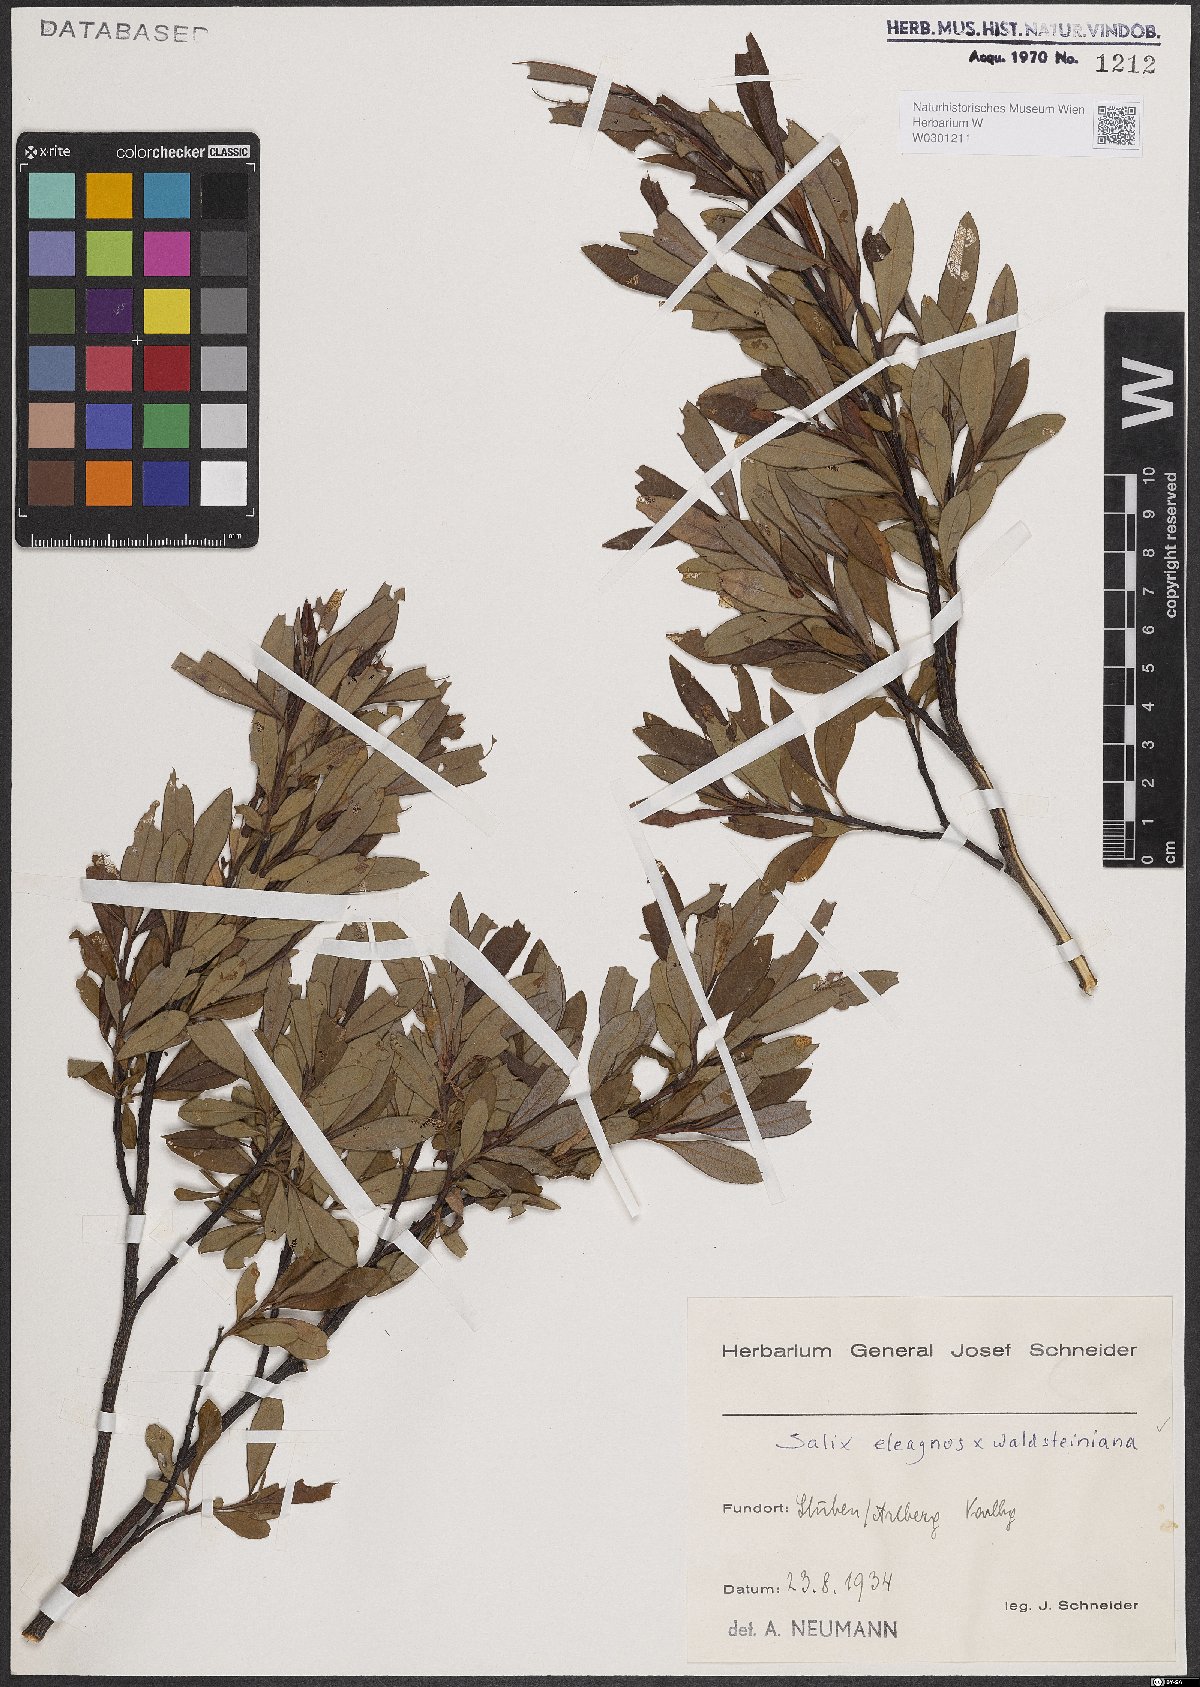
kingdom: Plantae
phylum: Tracheophyta
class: Magnoliopsida
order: Malpighiales
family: Salicaceae
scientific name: Salicaceae
